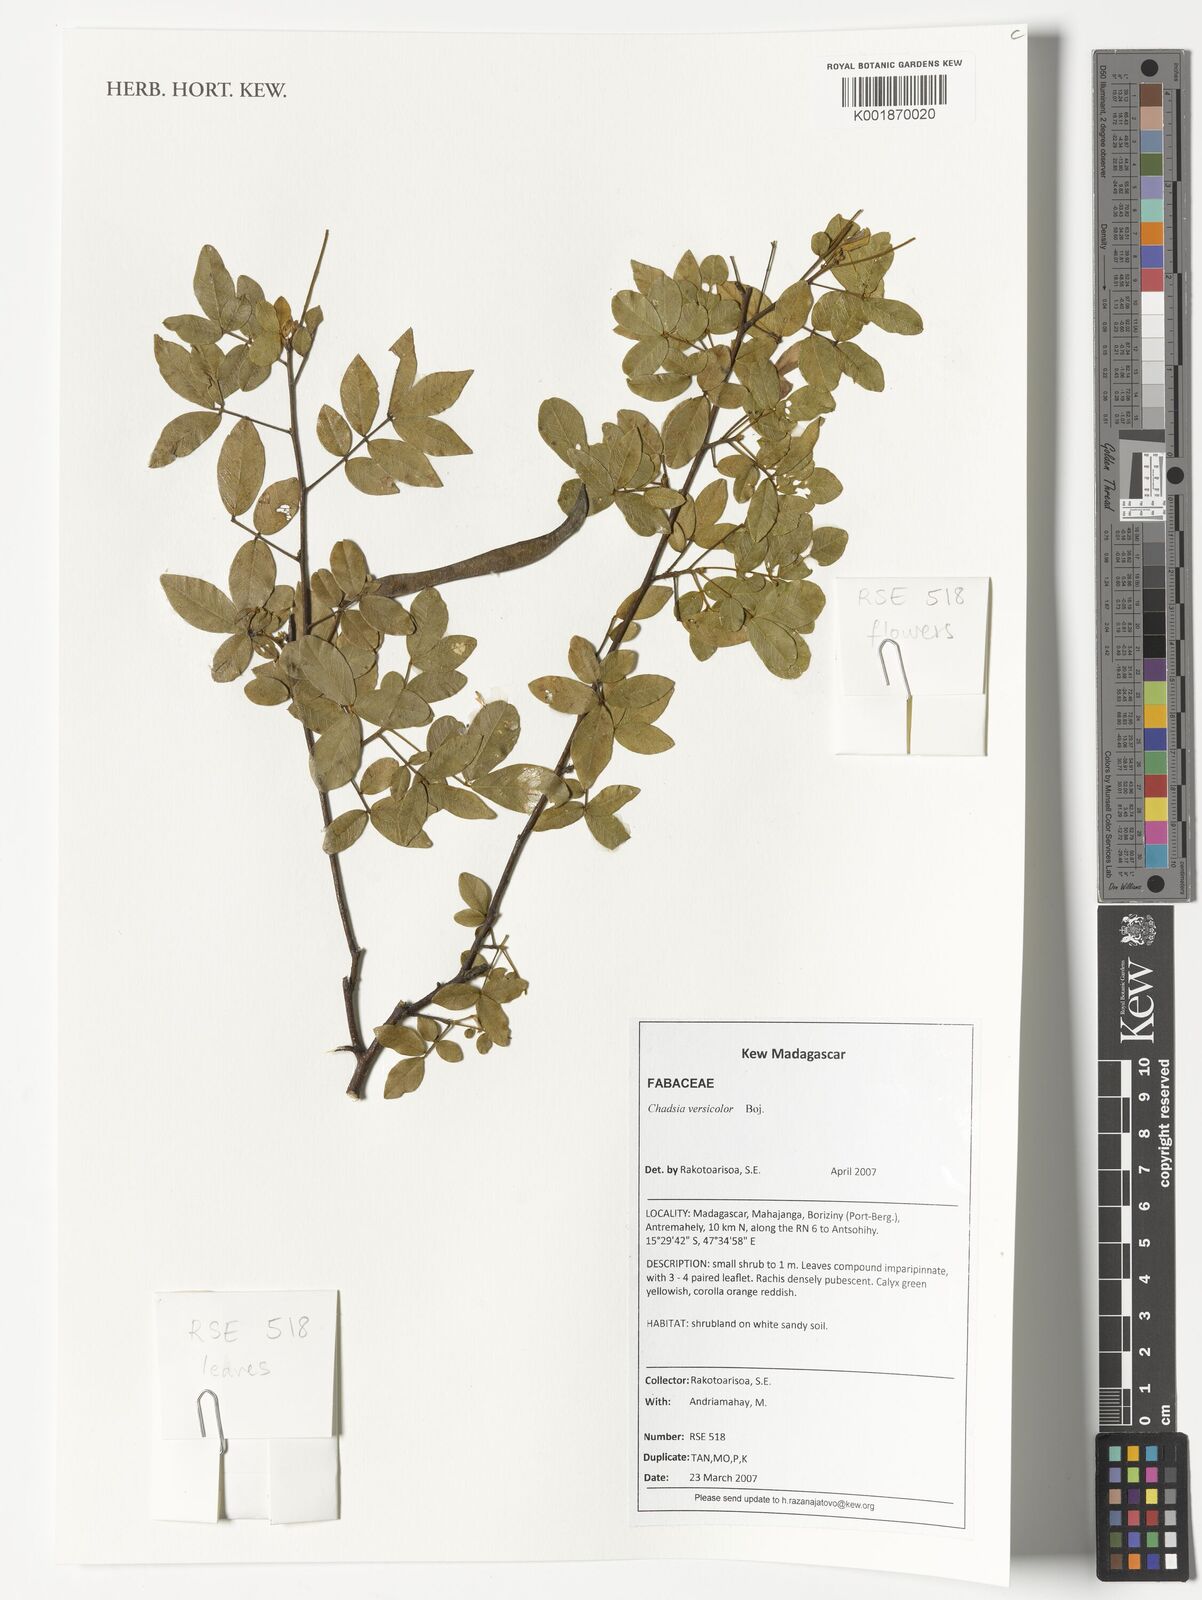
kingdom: Plantae
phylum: Tracheophyta
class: Magnoliopsida
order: Fabales
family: Fabaceae
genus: Chadsia
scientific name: Chadsia versicolor
